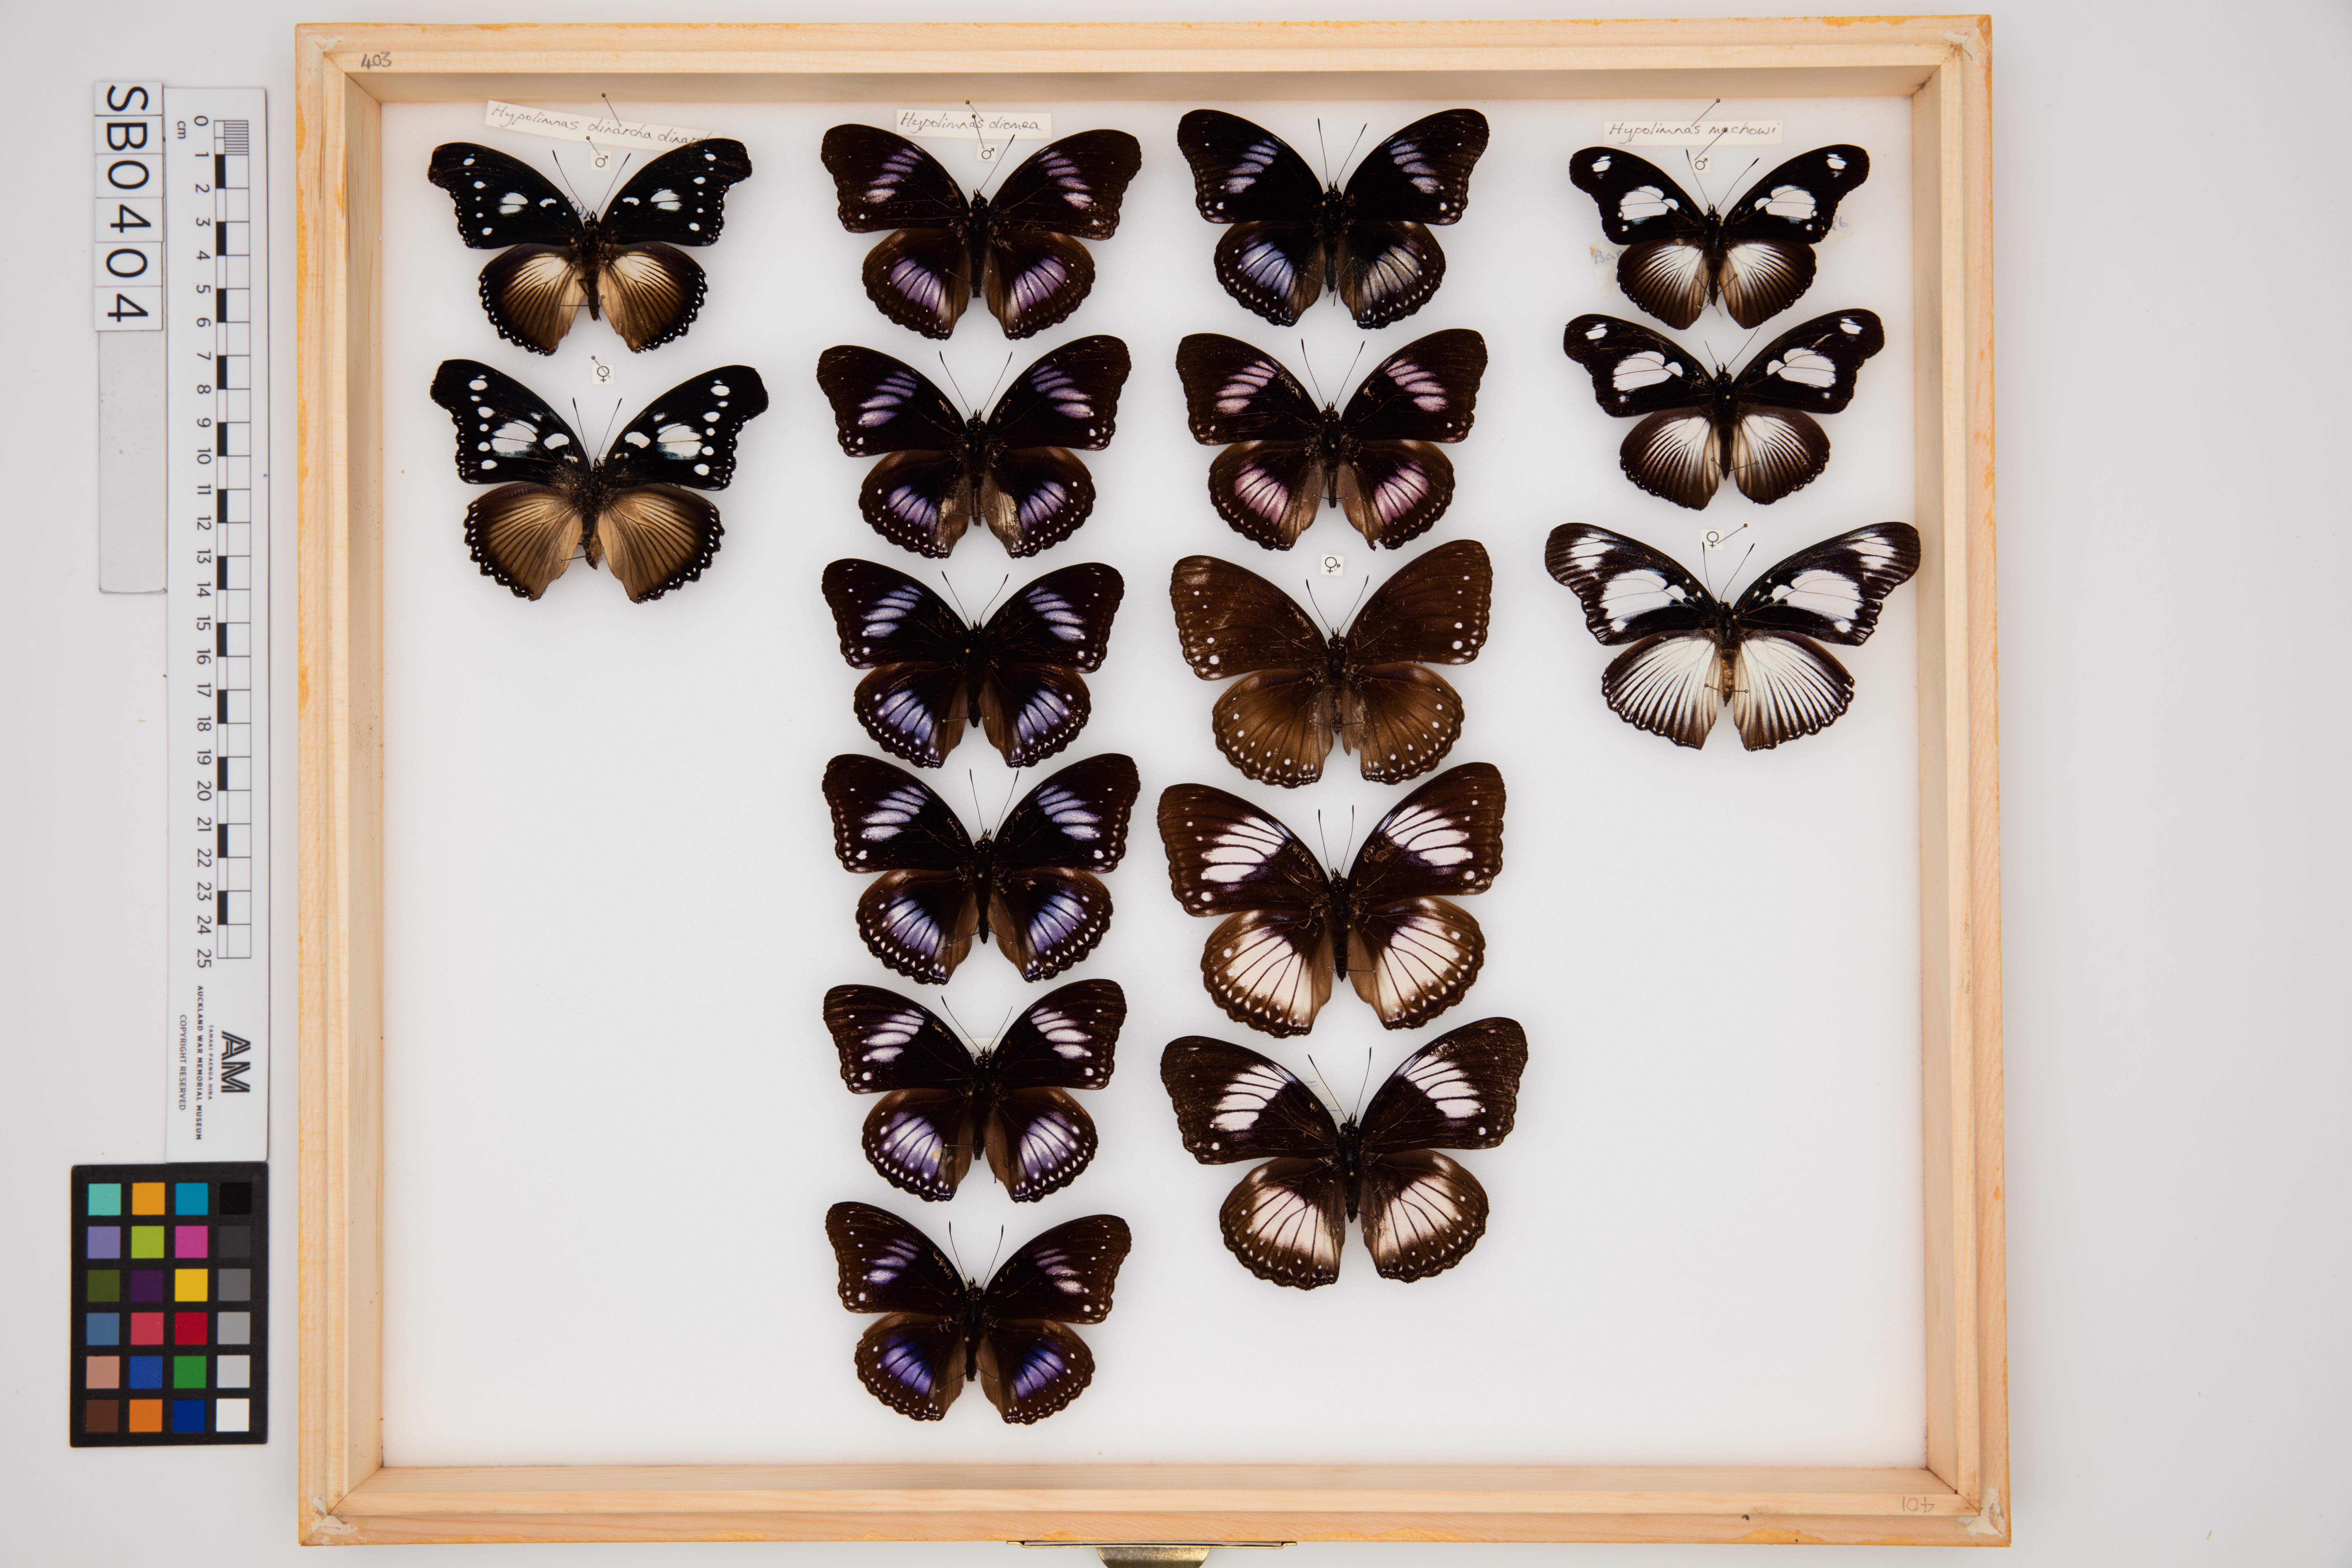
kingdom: Animalia
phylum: Arthropoda
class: Insecta
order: Lepidoptera
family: Nymphalidae
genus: Hypolimnas
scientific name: Hypolimnas dinarcha
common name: Large variable diadem
